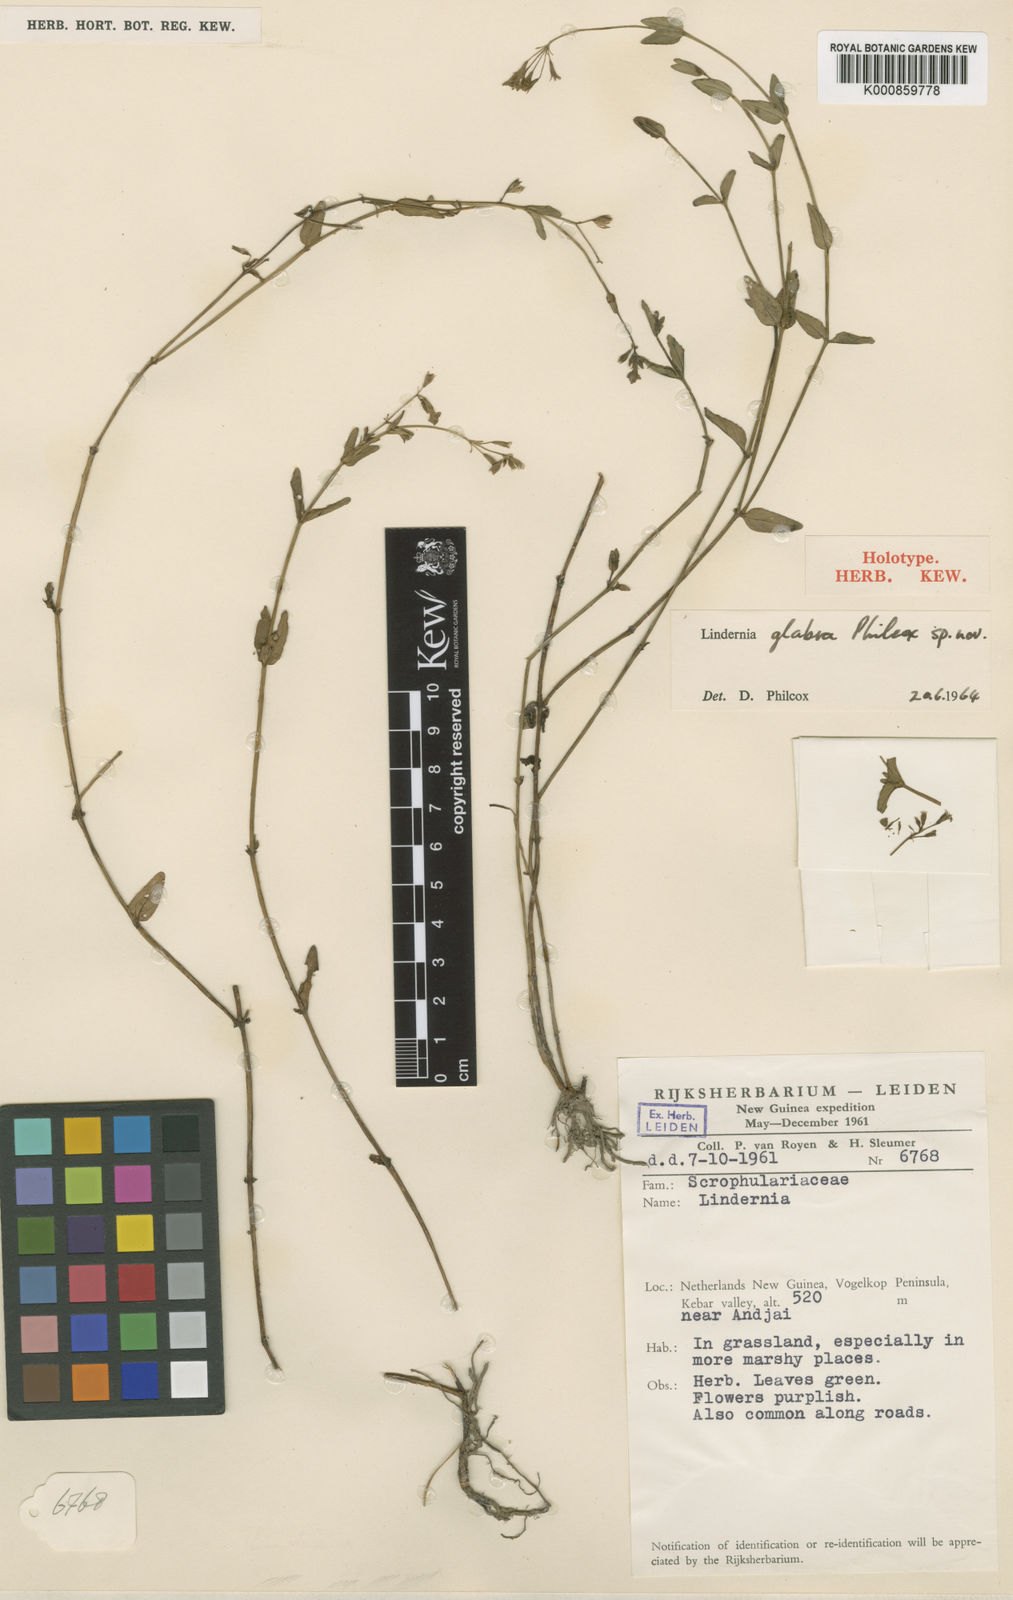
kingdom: Plantae
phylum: Tracheophyta
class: Magnoliopsida
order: Lamiales
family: Linderniaceae
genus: Torenia
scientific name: Torenia philcoxii
